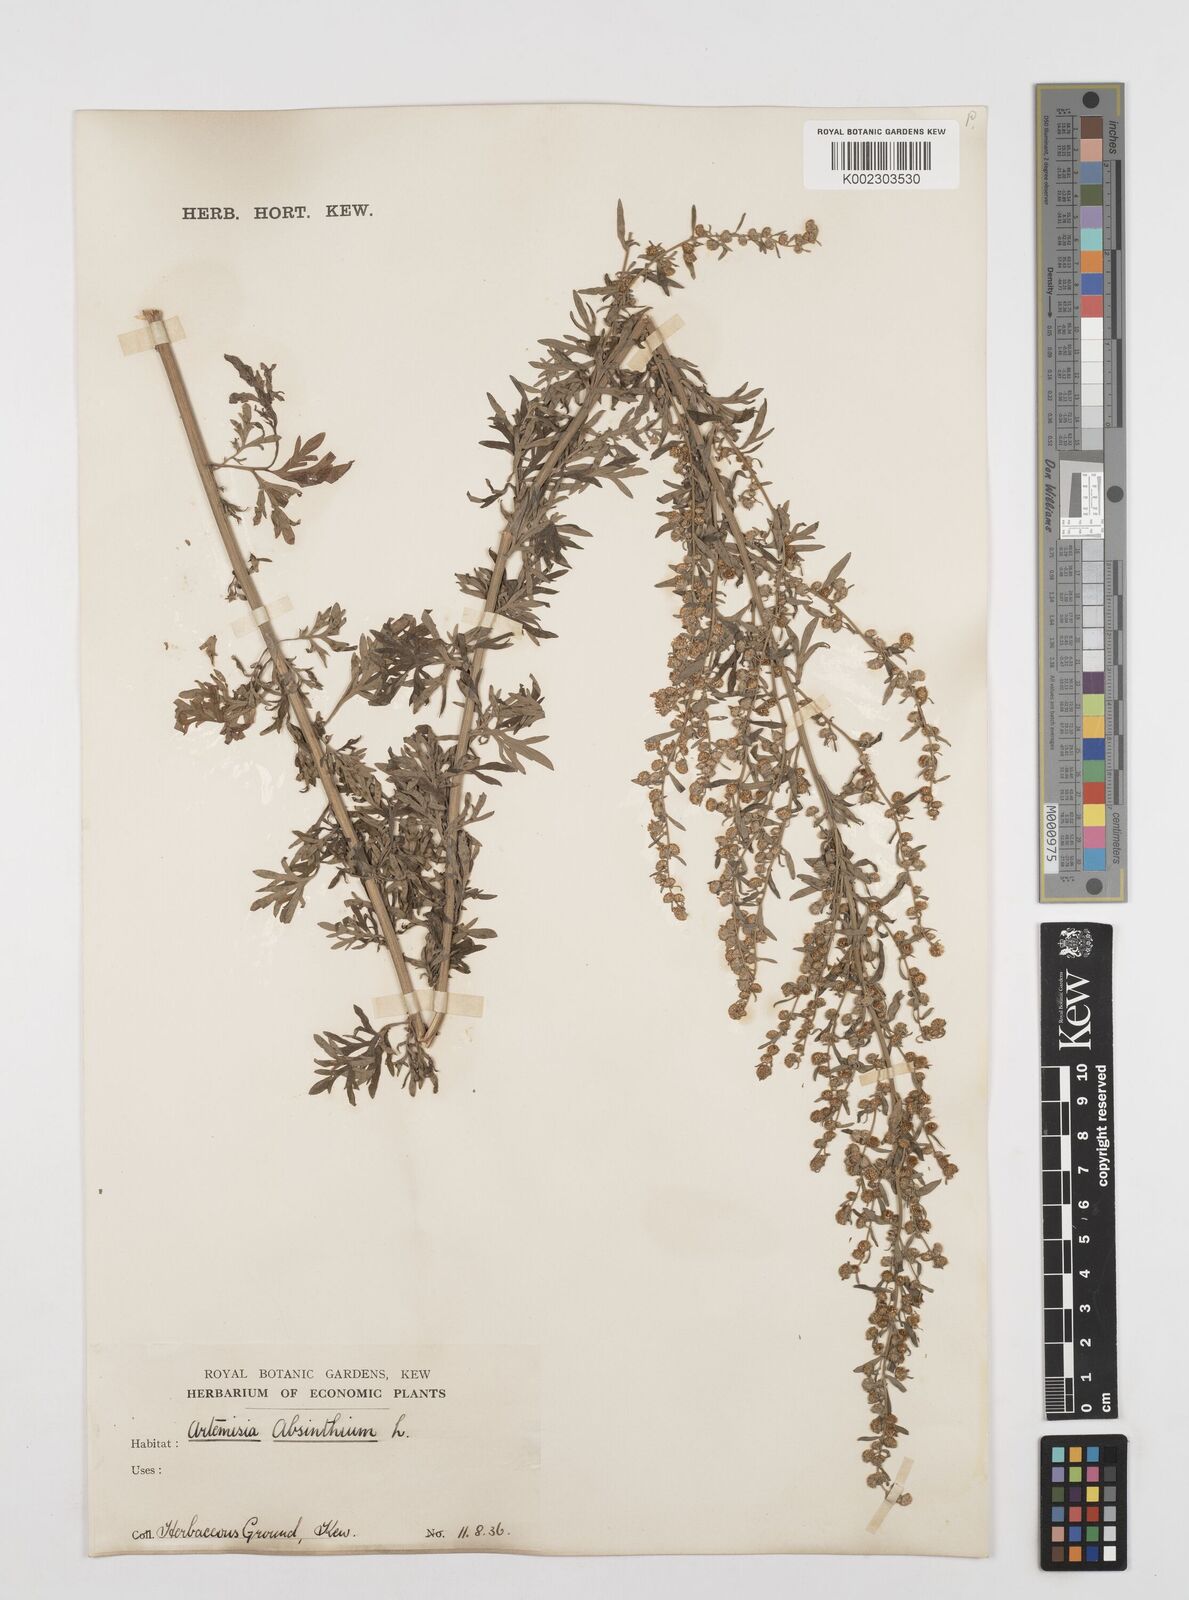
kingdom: Plantae
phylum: Tracheophyta
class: Magnoliopsida
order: Asterales
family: Asteraceae
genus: Artemisia
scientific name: Artemisia absinthium
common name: Wormwood
